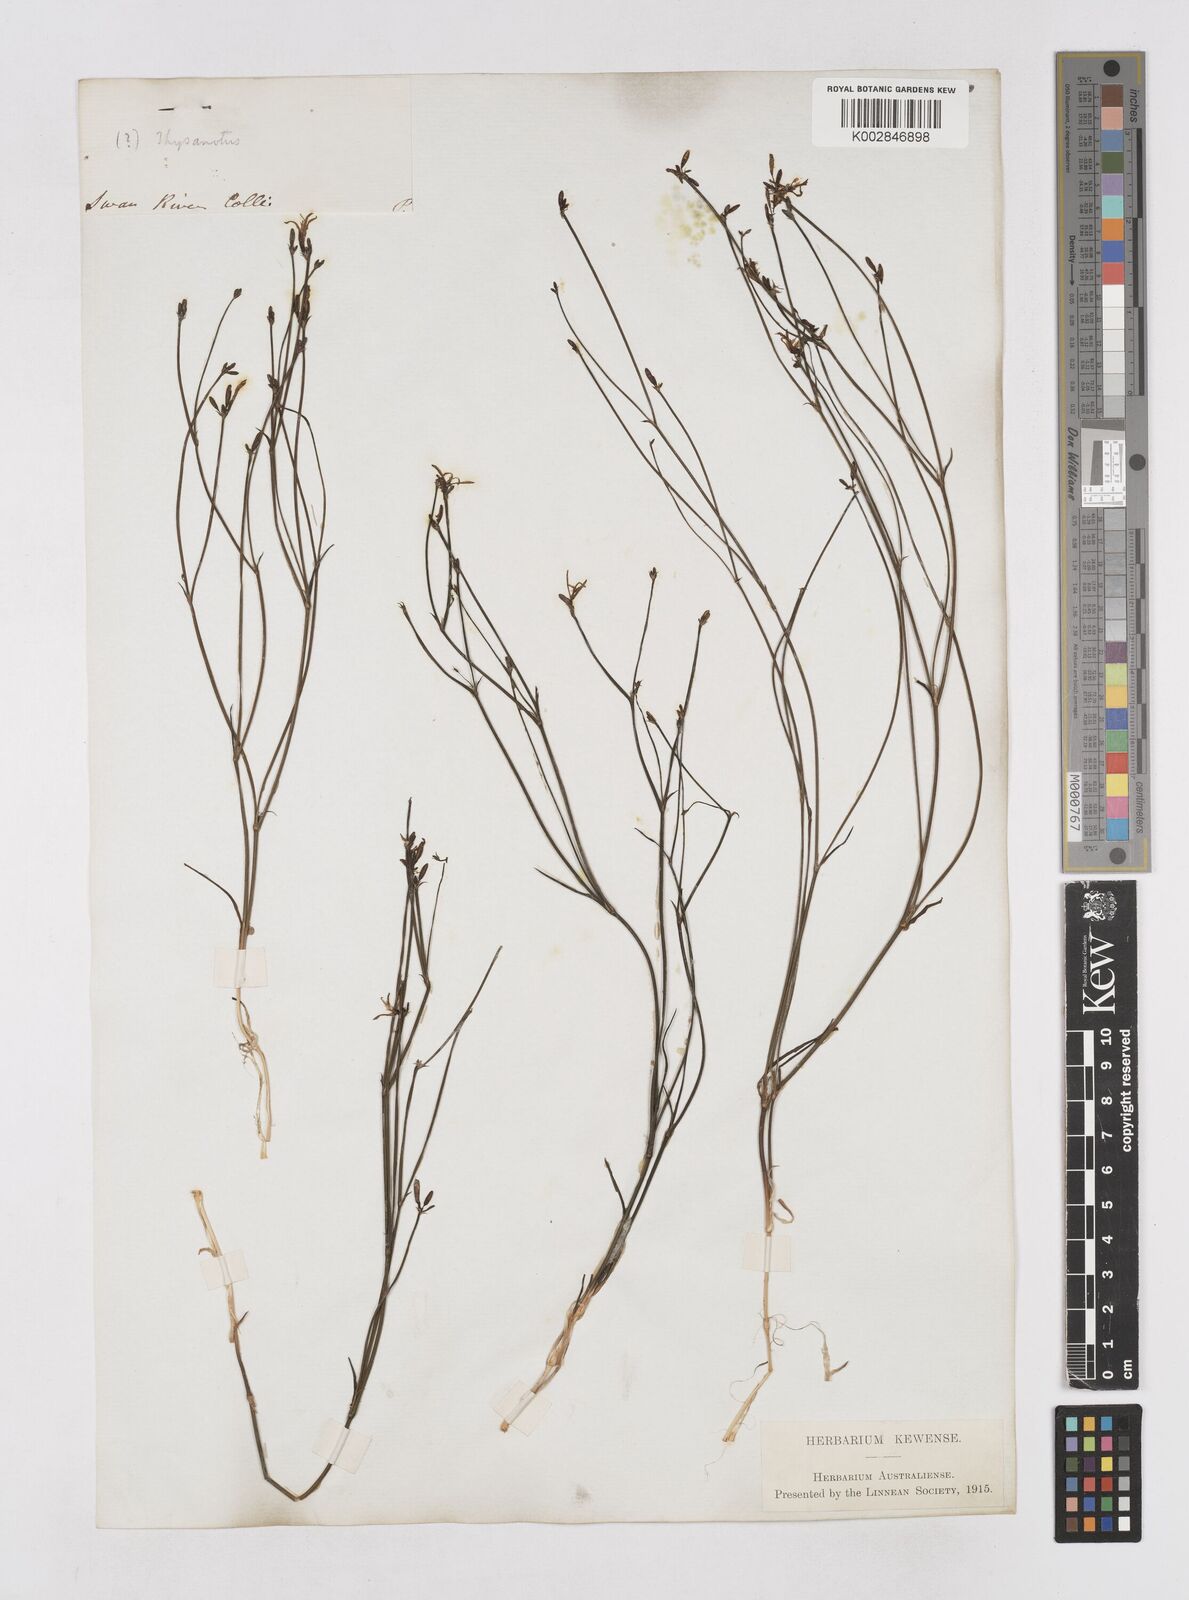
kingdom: Plantae
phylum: Tracheophyta
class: Liliopsida
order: Asparagales
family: Asphodelaceae
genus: Tricoryne
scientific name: Tricoryne elatior
